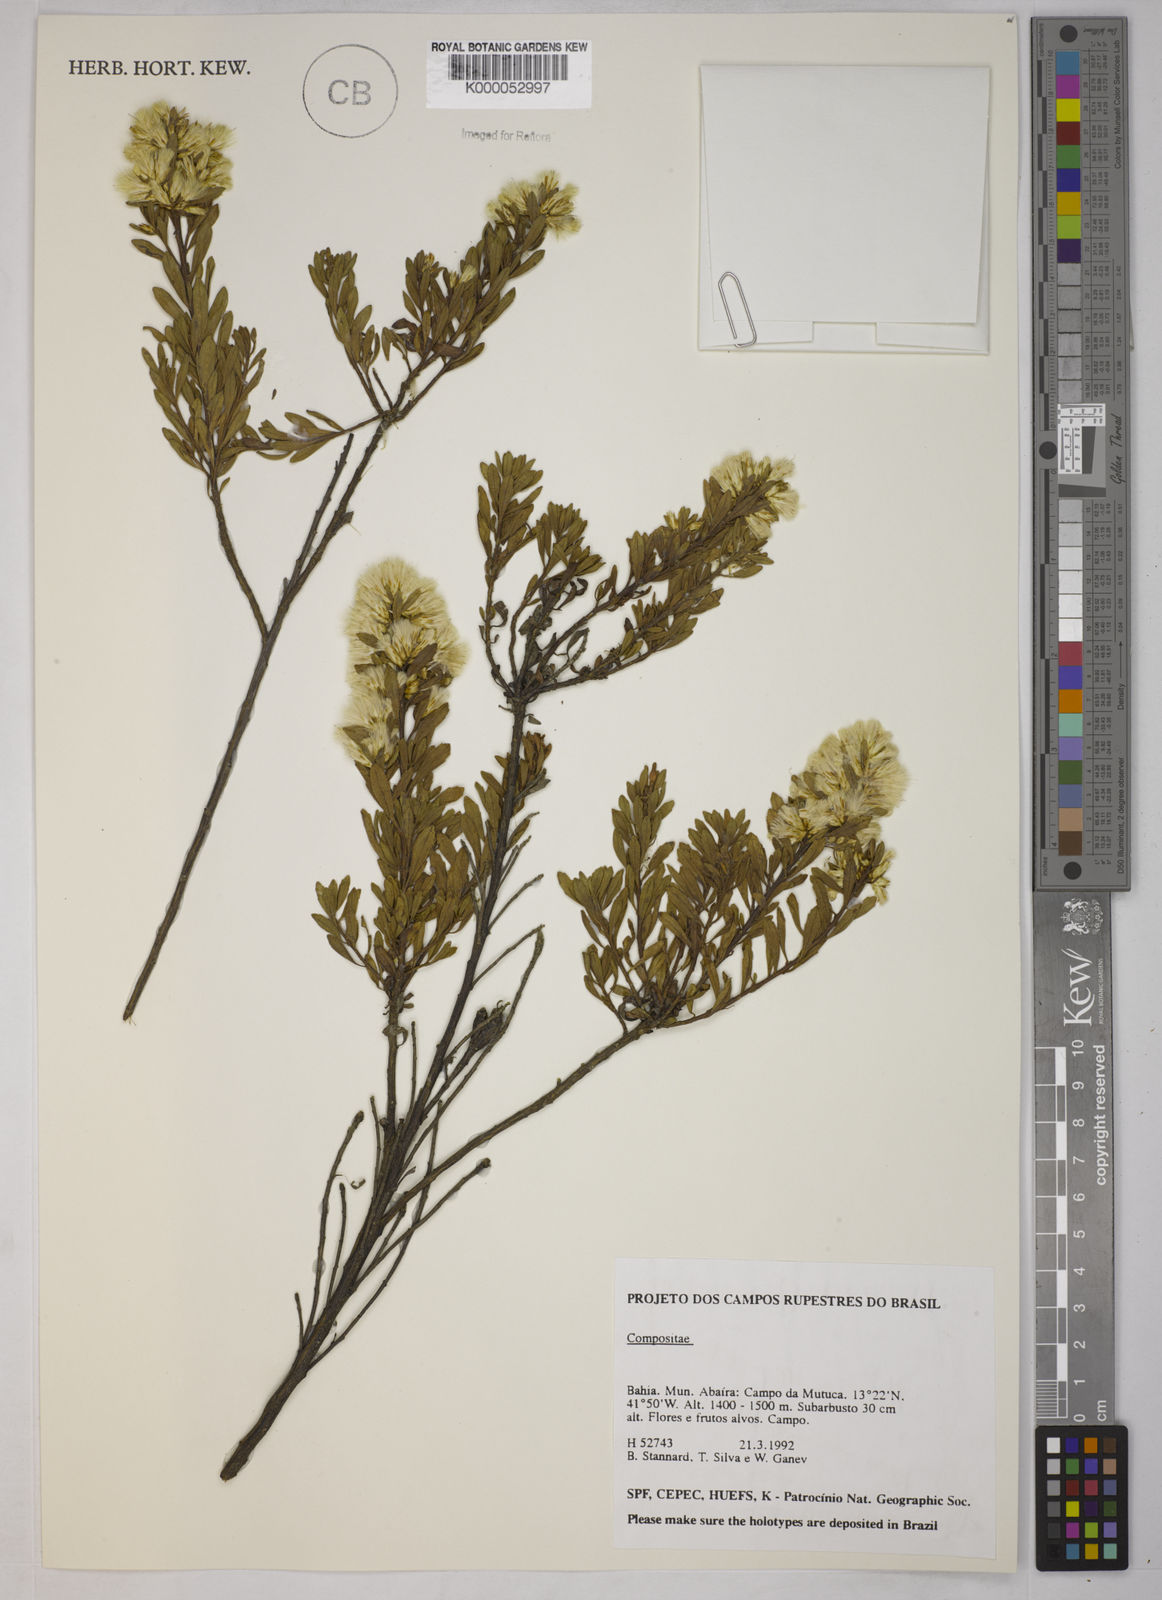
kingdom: Plantae
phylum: Tracheophyta
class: Magnoliopsida
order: Asterales
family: Asteraceae
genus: Baccharis
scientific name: Baccharis leptocephala
